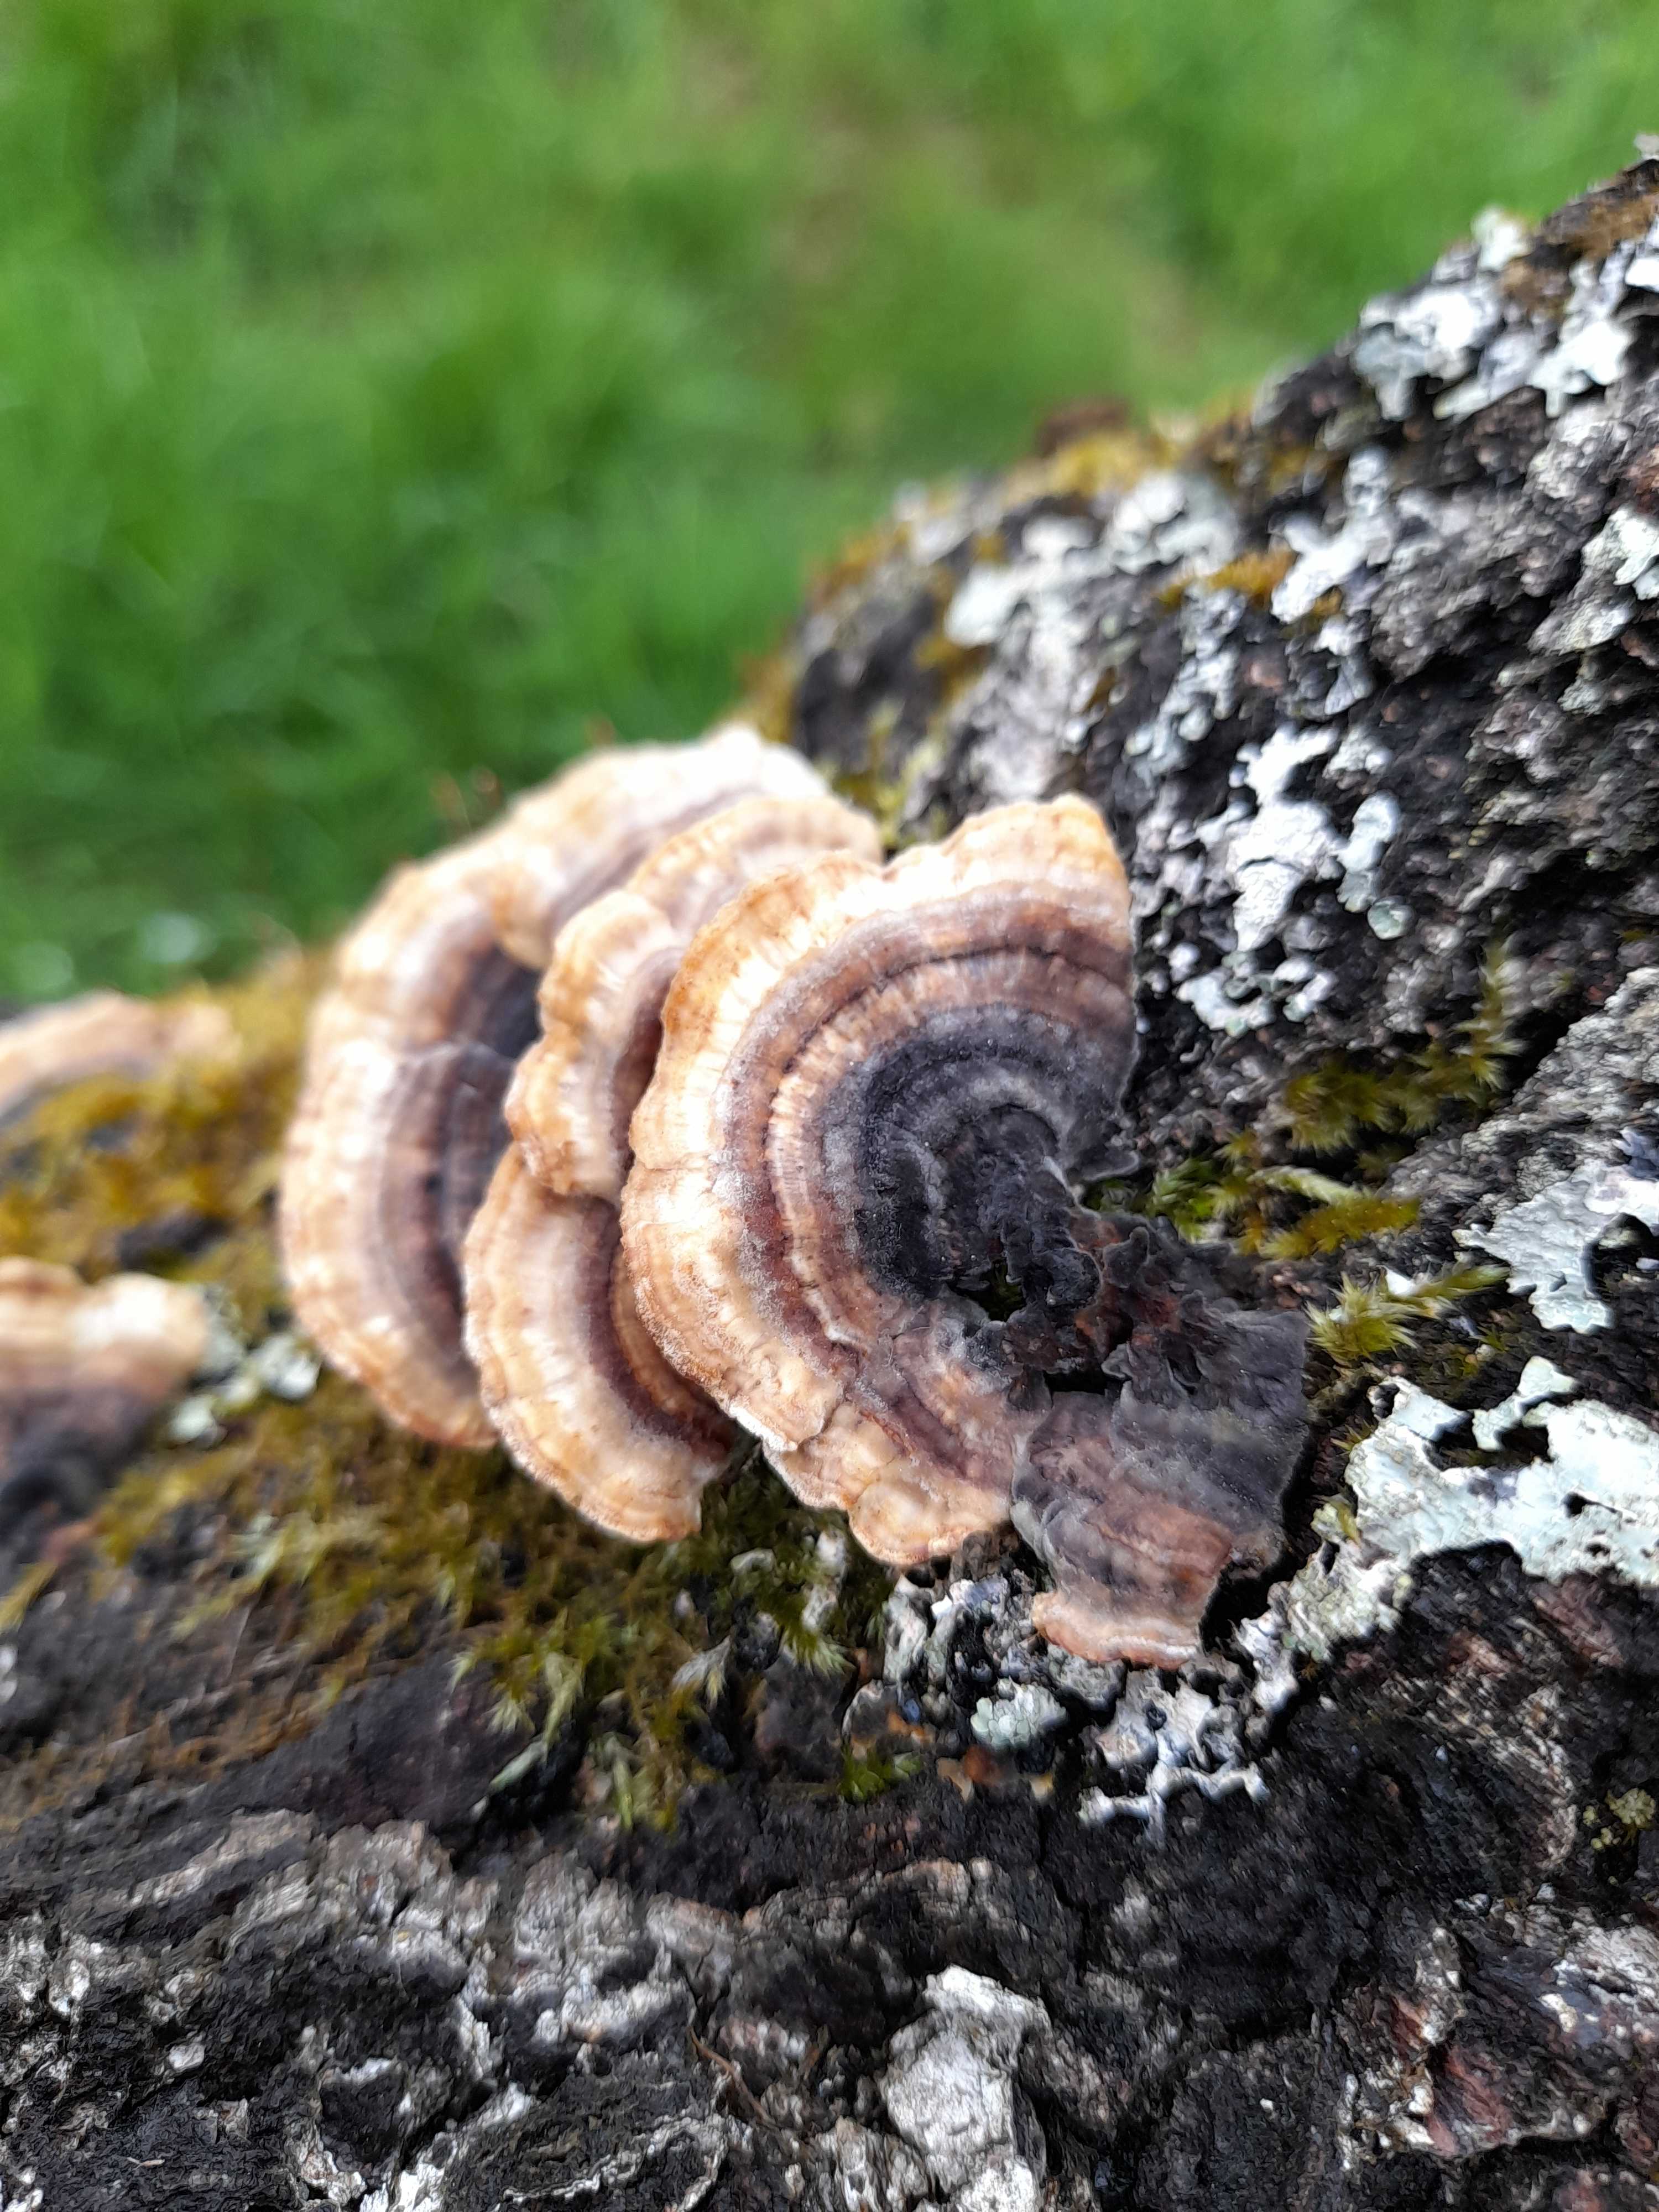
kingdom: Fungi
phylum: Basidiomycota
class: Agaricomycetes
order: Polyporales
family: Polyporaceae
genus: Trametes
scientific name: Trametes versicolor
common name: broget læderporesvamp
